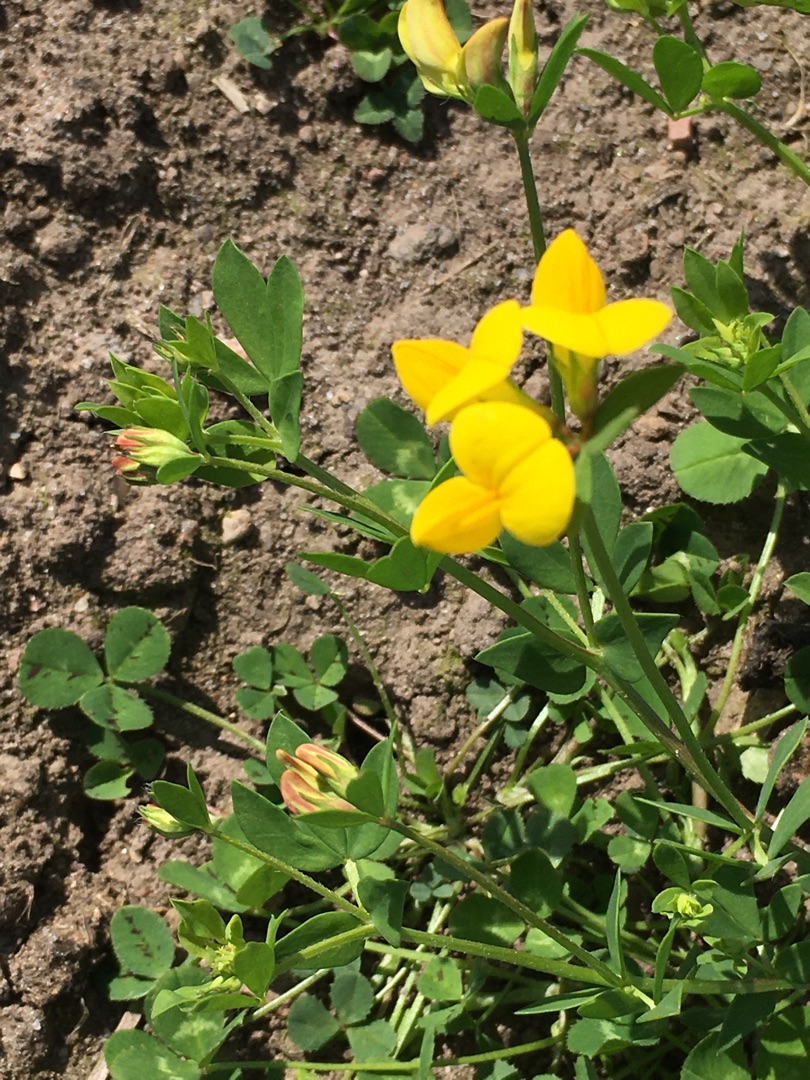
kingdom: Plantae
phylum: Tracheophyta
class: Magnoliopsida
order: Fabales
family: Fabaceae
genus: Lotus
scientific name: Lotus corniculatus
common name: Almindelig kællingetand
